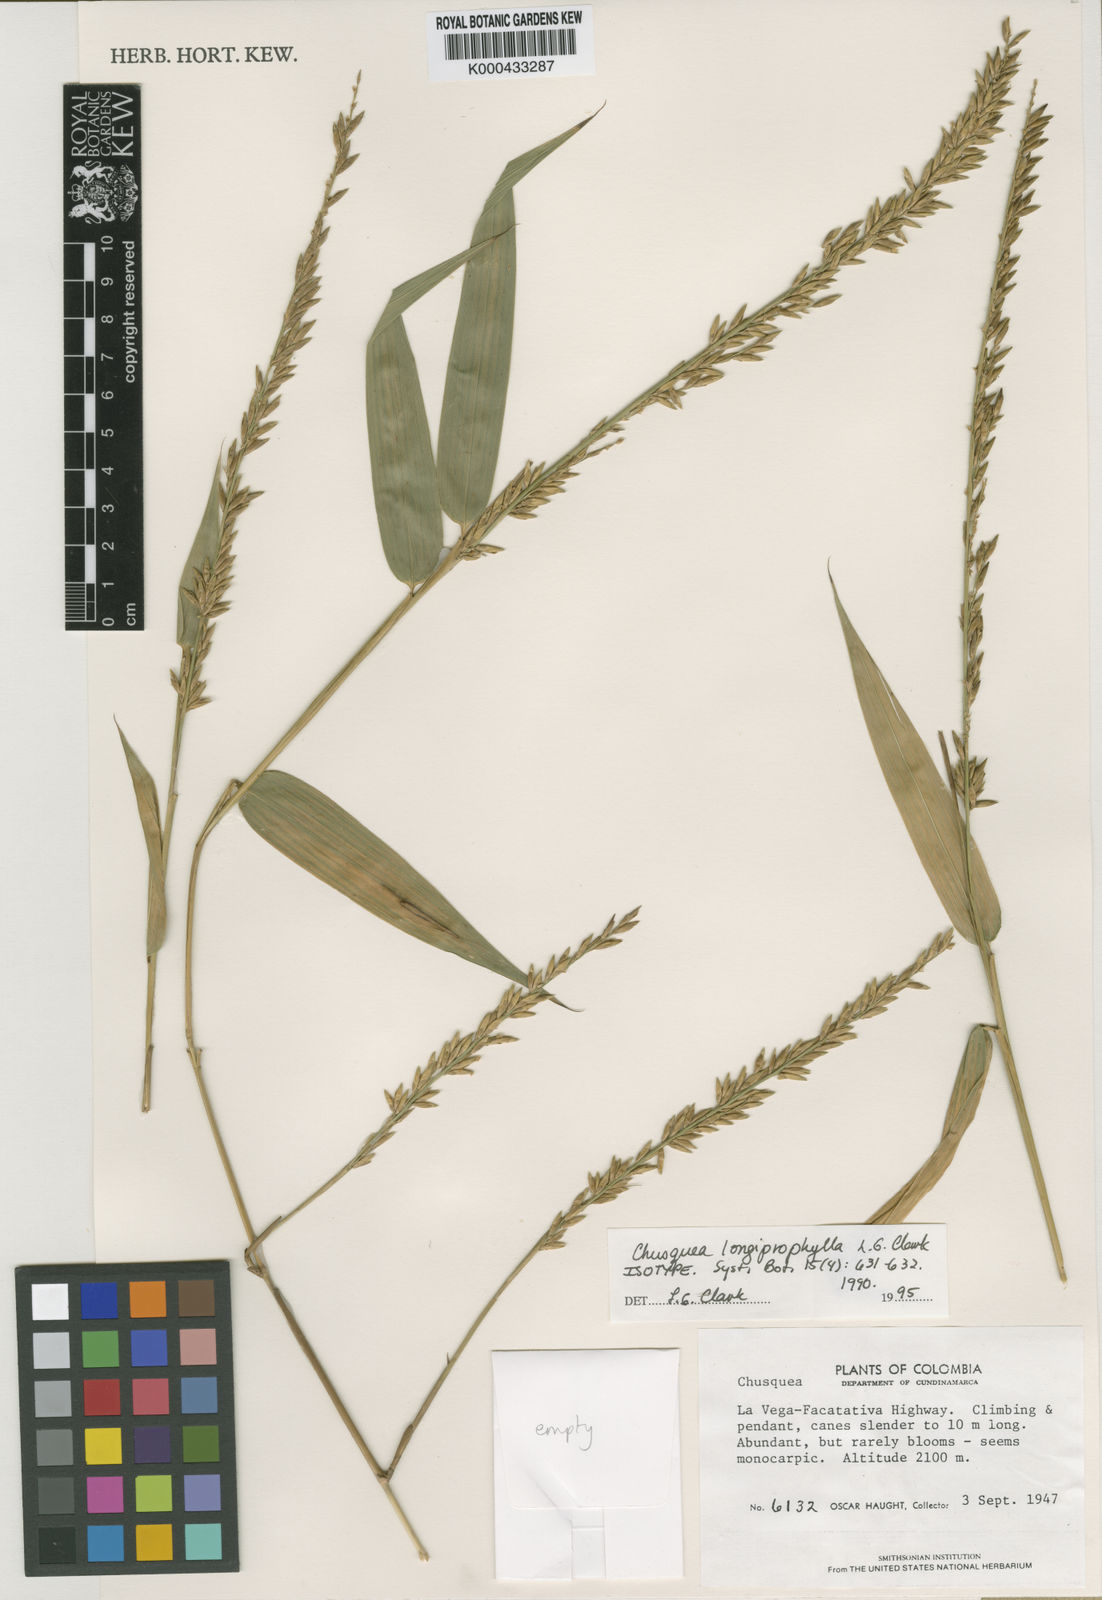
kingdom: Plantae
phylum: Tracheophyta
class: Liliopsida
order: Poales
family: Poaceae
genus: Chusquea
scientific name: Chusquea longiprophylla
